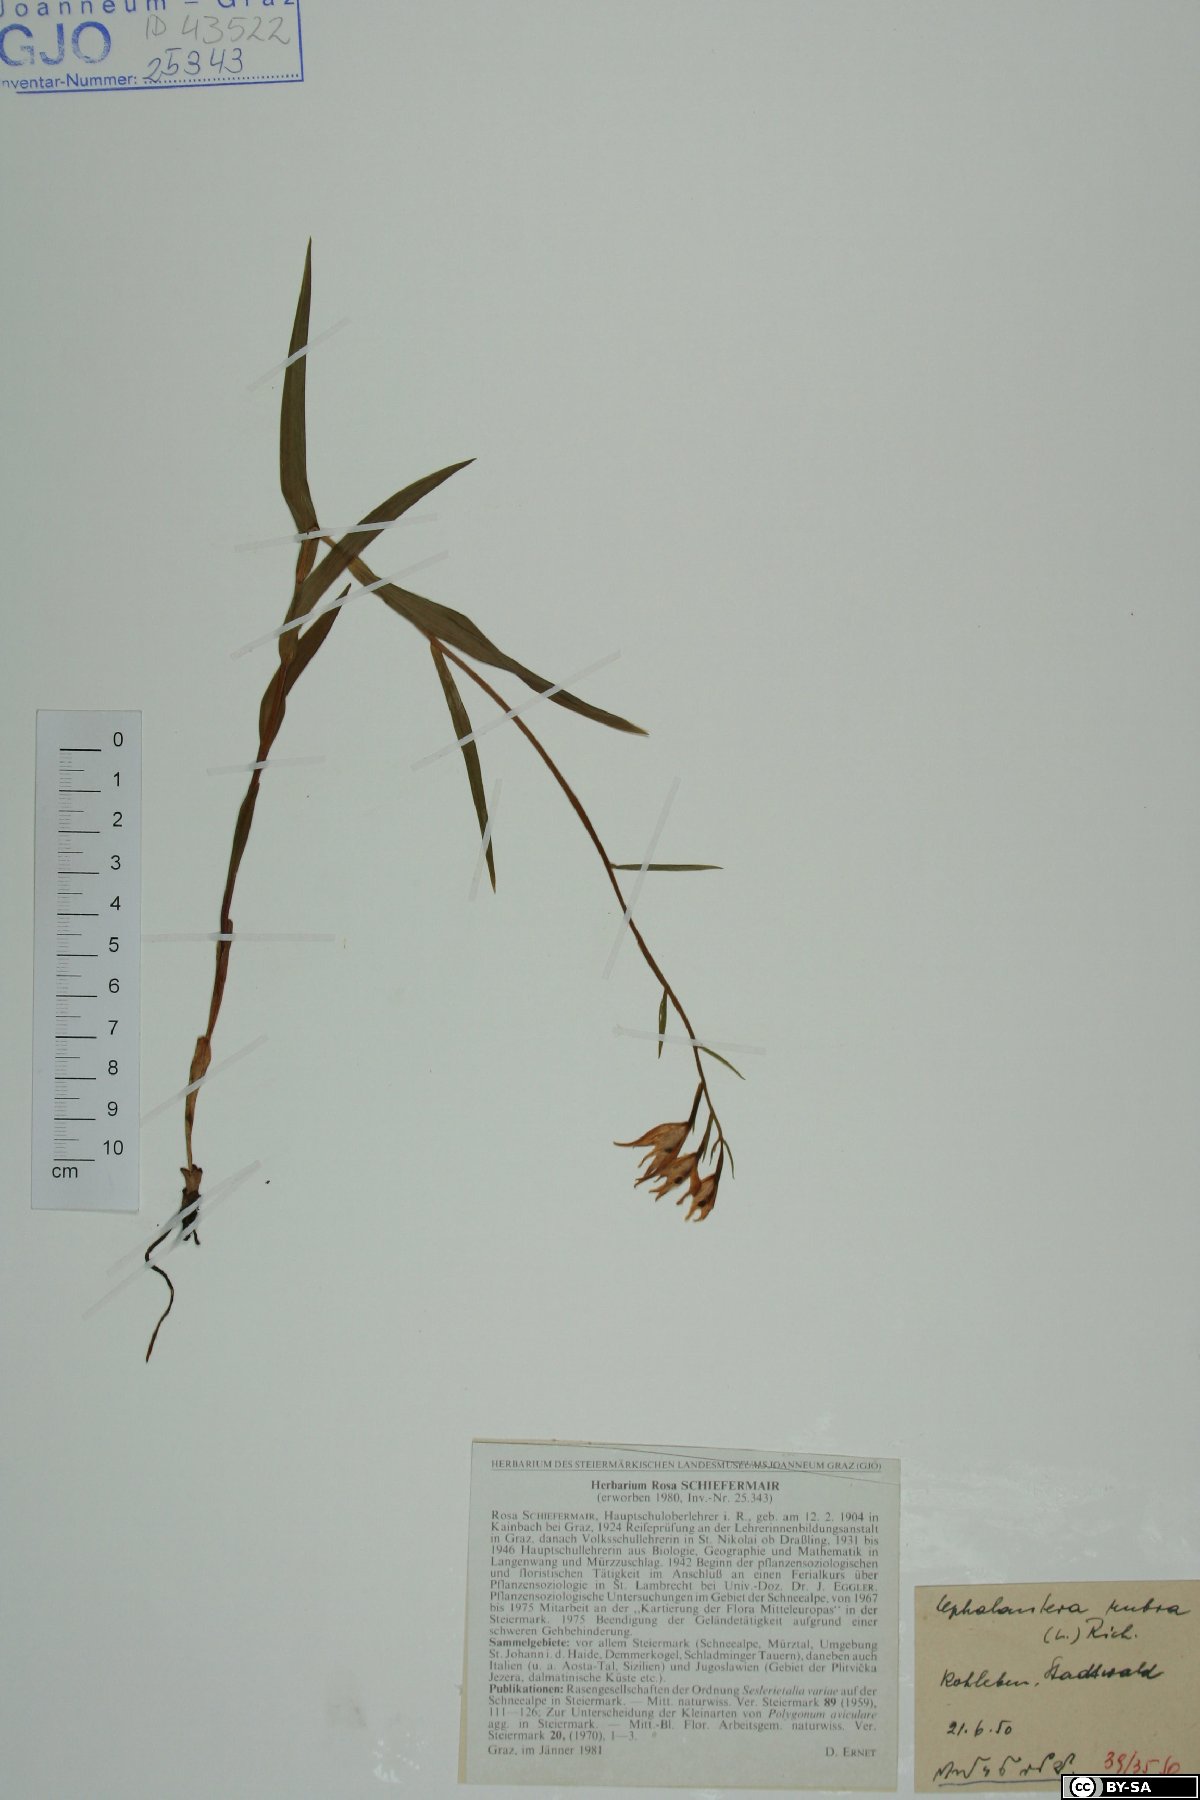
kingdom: Plantae
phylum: Tracheophyta
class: Liliopsida
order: Asparagales
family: Orchidaceae
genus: Cephalanthera
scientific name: Cephalanthera rubra
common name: Red helleborine
